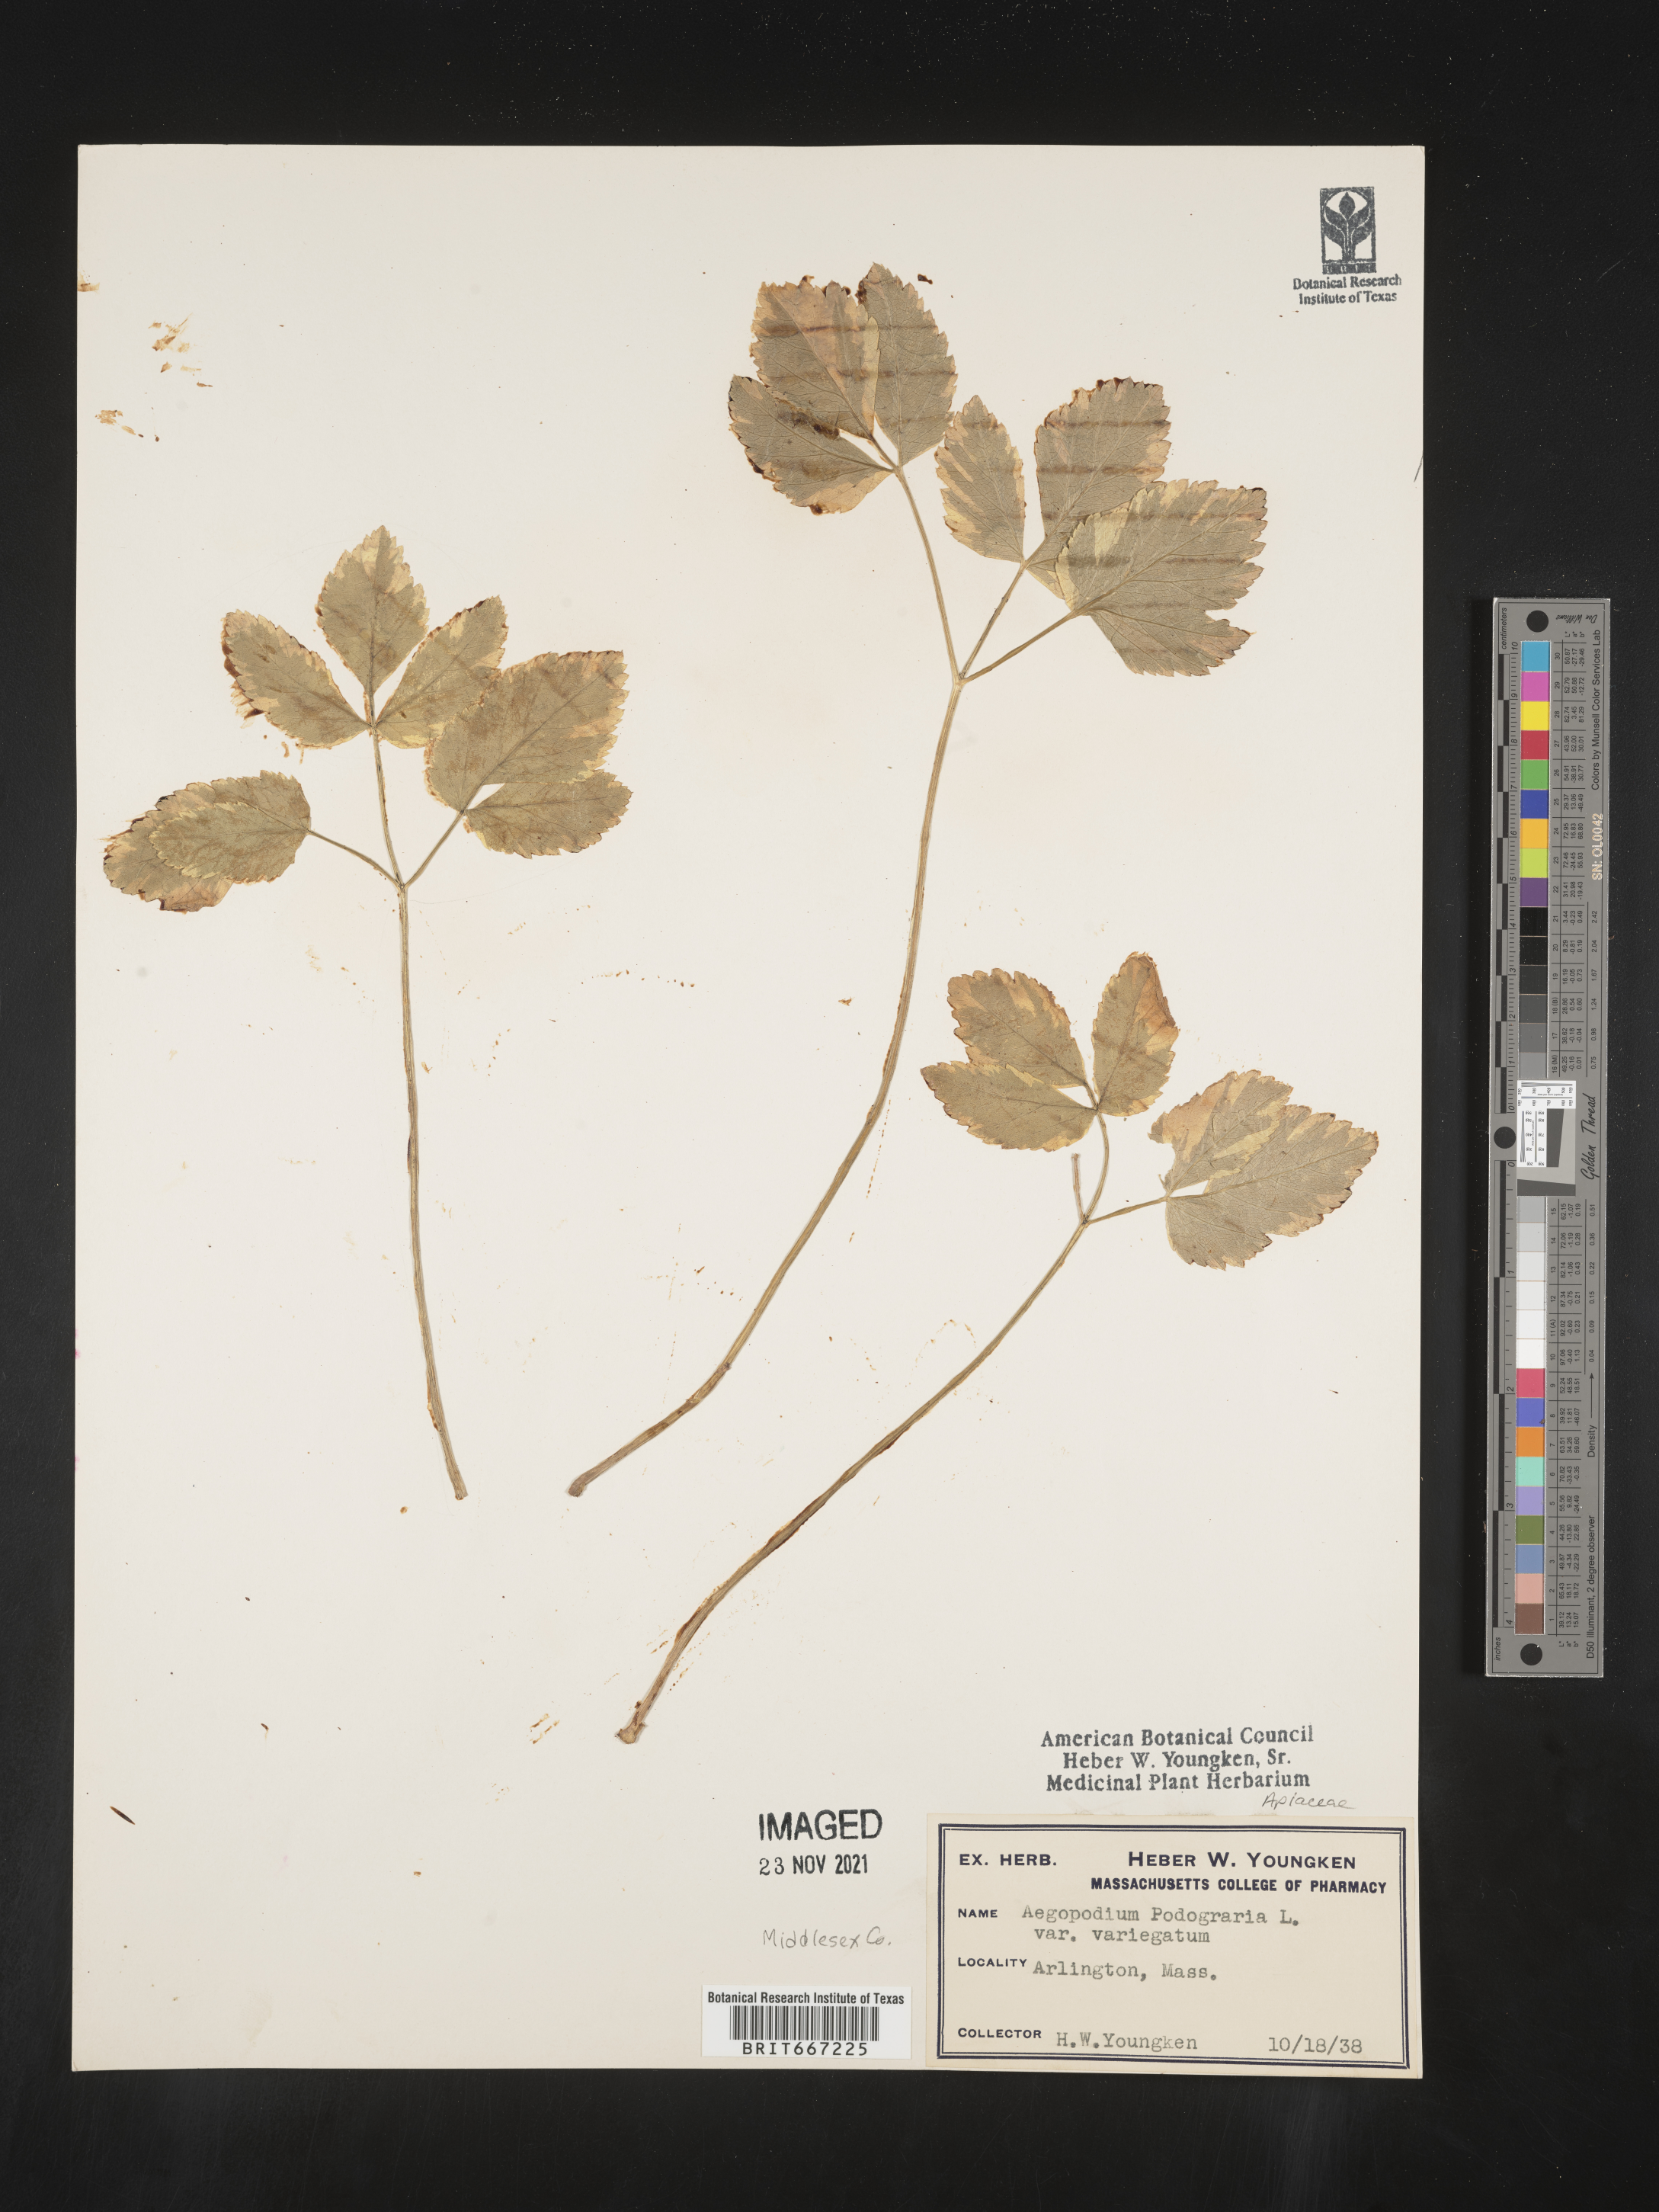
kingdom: Plantae
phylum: Tracheophyta
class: Magnoliopsida
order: Apiales
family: Apiaceae
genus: Aegopodium
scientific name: Aegopodium podagraria
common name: Ground-elder
